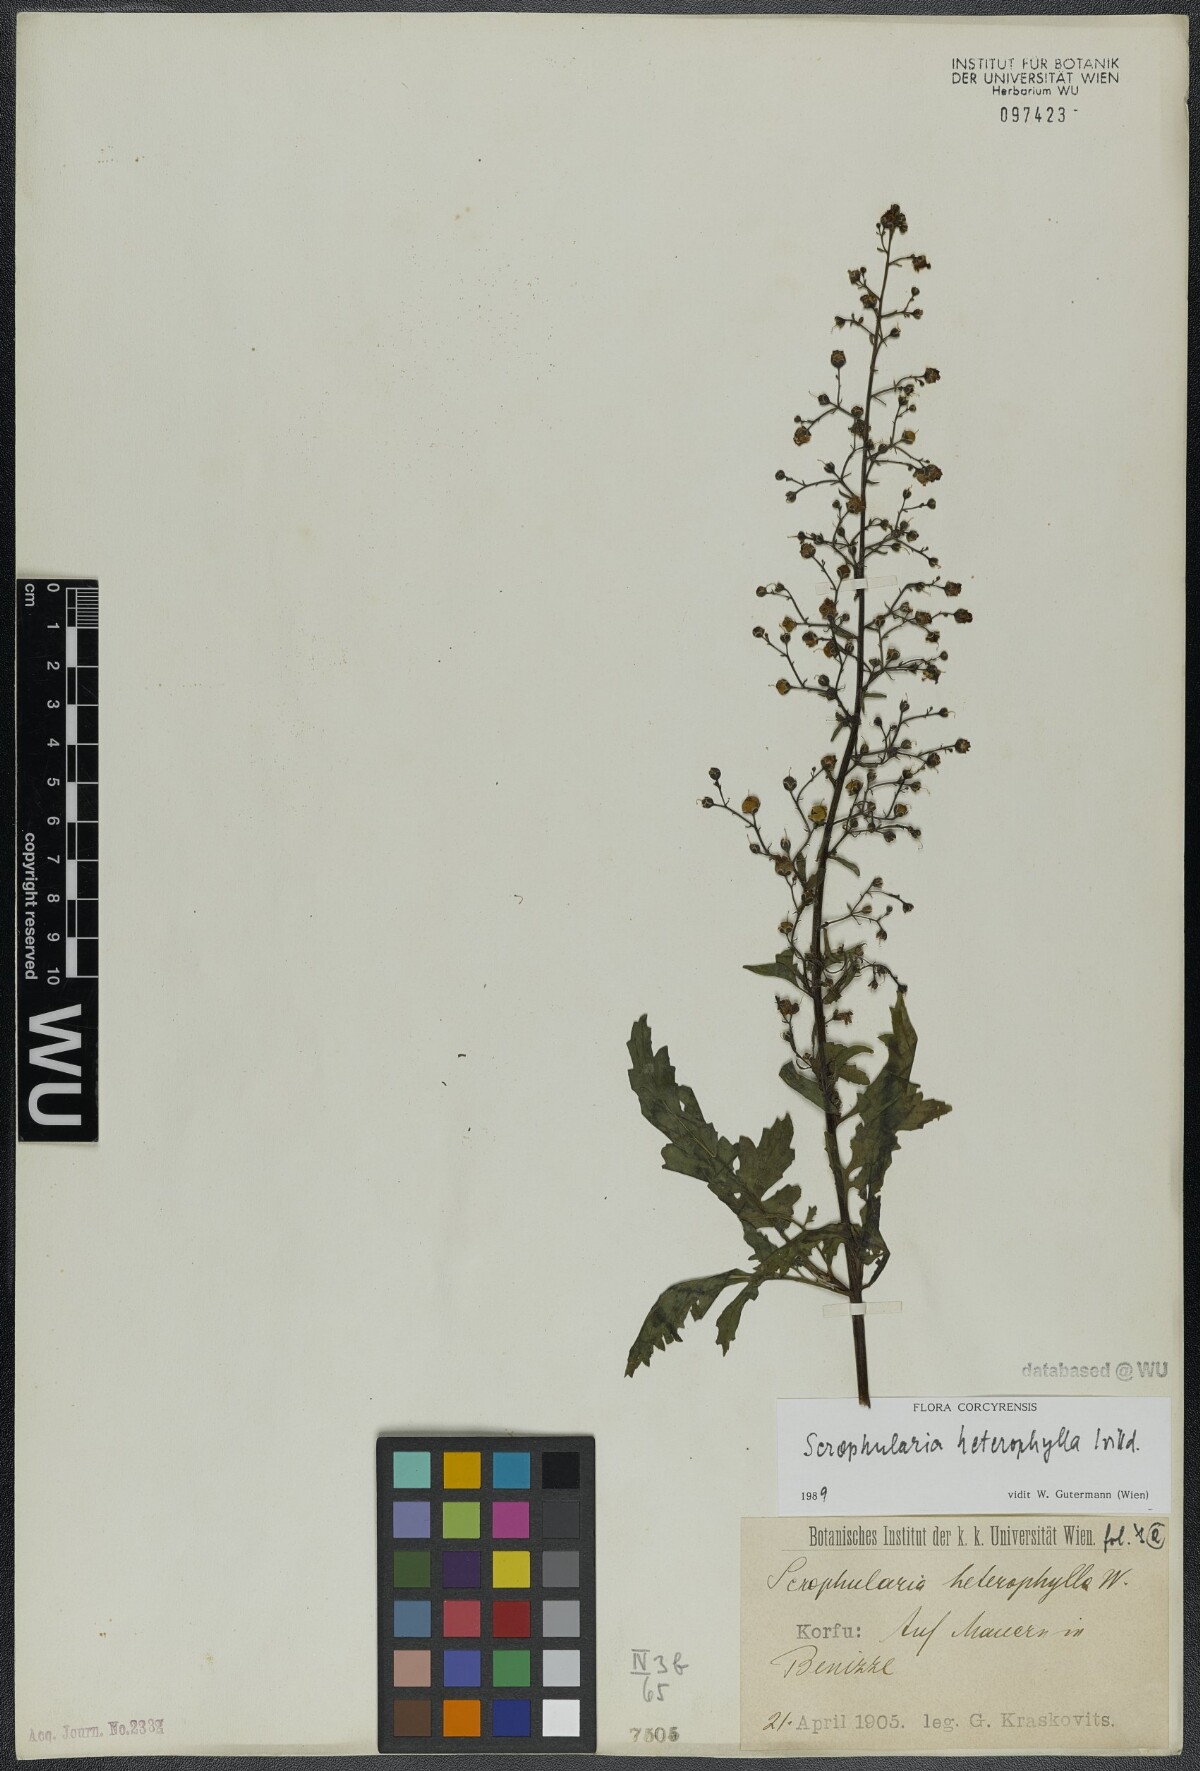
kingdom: Plantae
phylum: Tracheophyta
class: Magnoliopsida
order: Lamiales
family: Scrophulariaceae
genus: Scrophularia
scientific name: Scrophularia heterophylla
